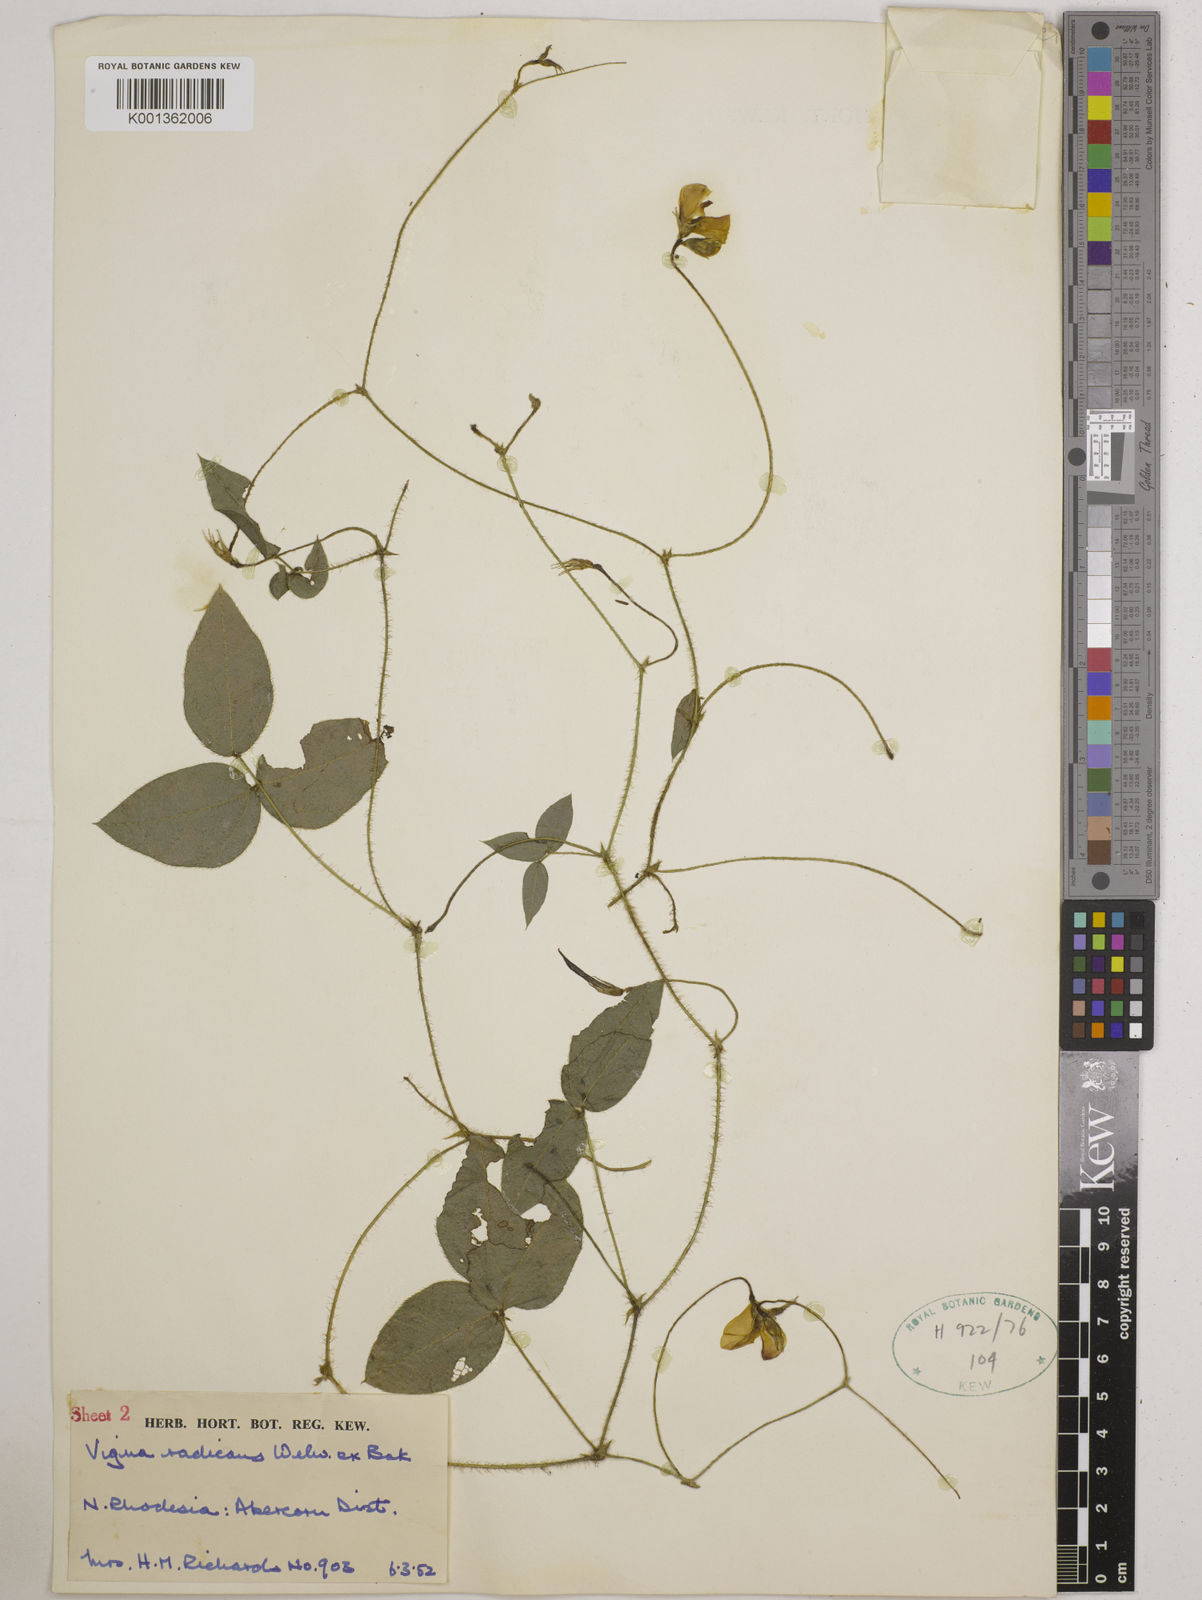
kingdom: Plantae
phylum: Tracheophyta
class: Magnoliopsida
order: Fabales
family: Fabaceae
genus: Vigna
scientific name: Vigna radicans
